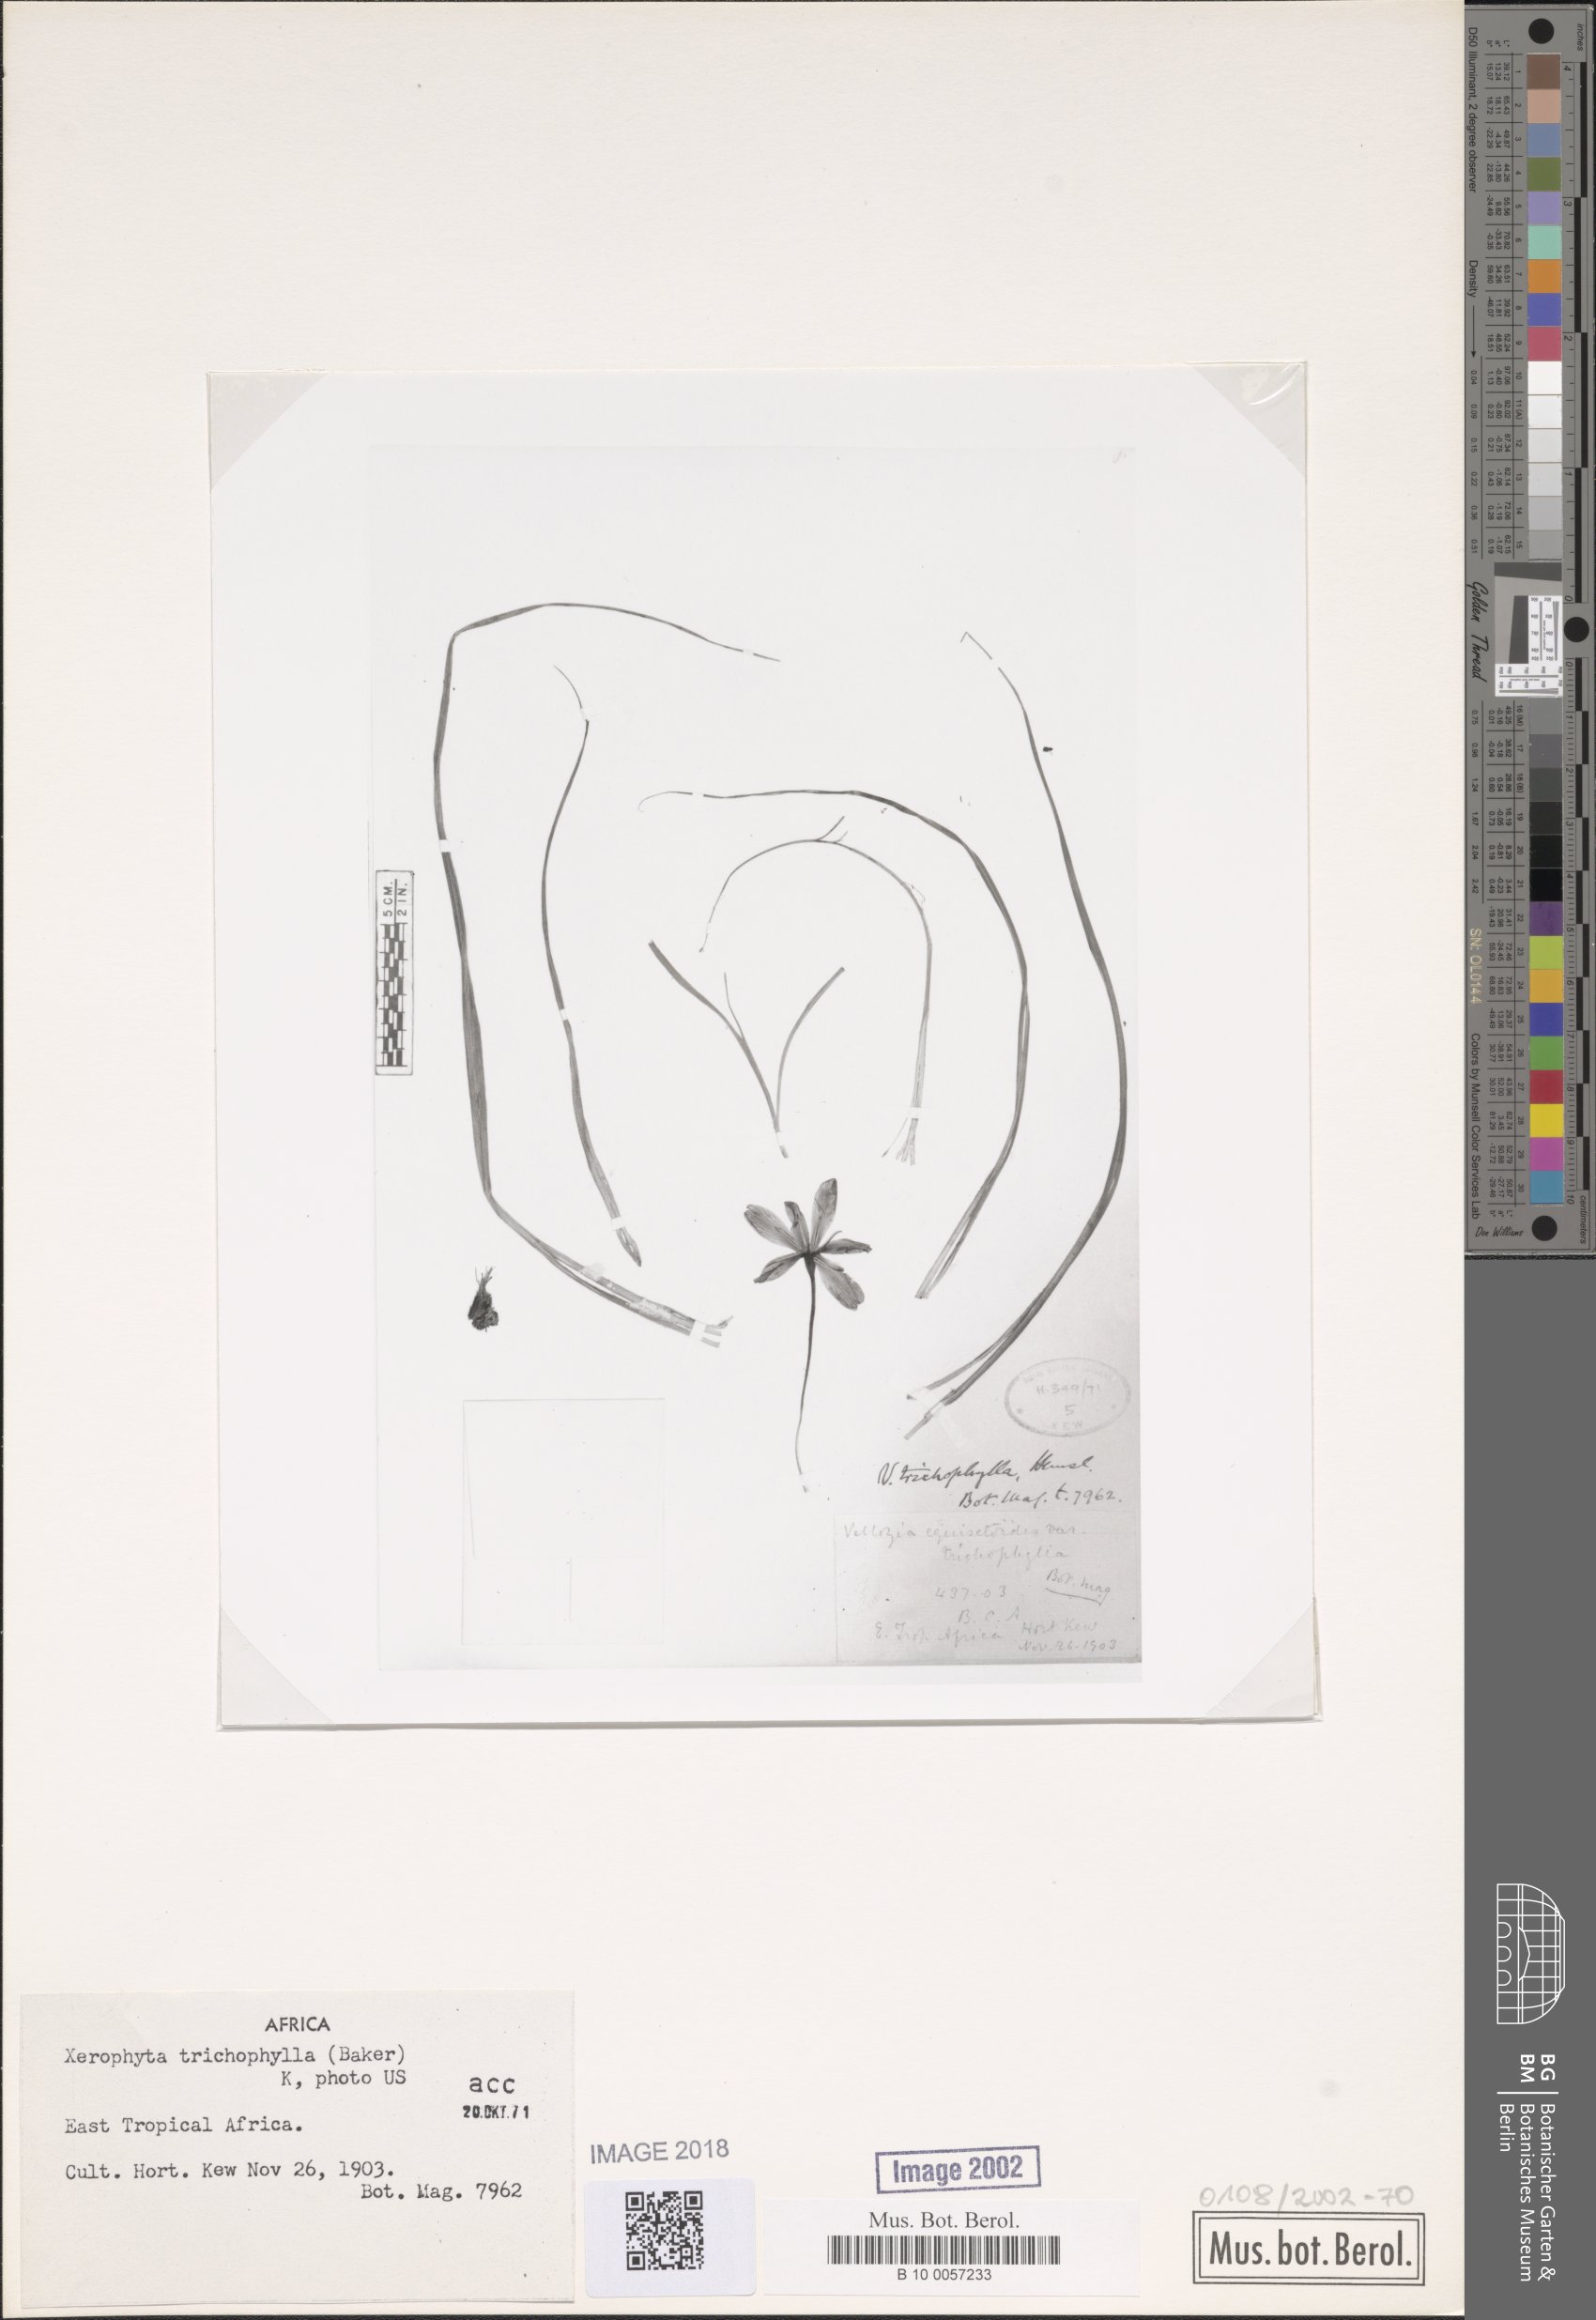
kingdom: Plantae
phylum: Tracheophyta
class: Liliopsida
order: Pandanales
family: Velloziaceae
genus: Xerophyta
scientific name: Xerophyta trichophylla
